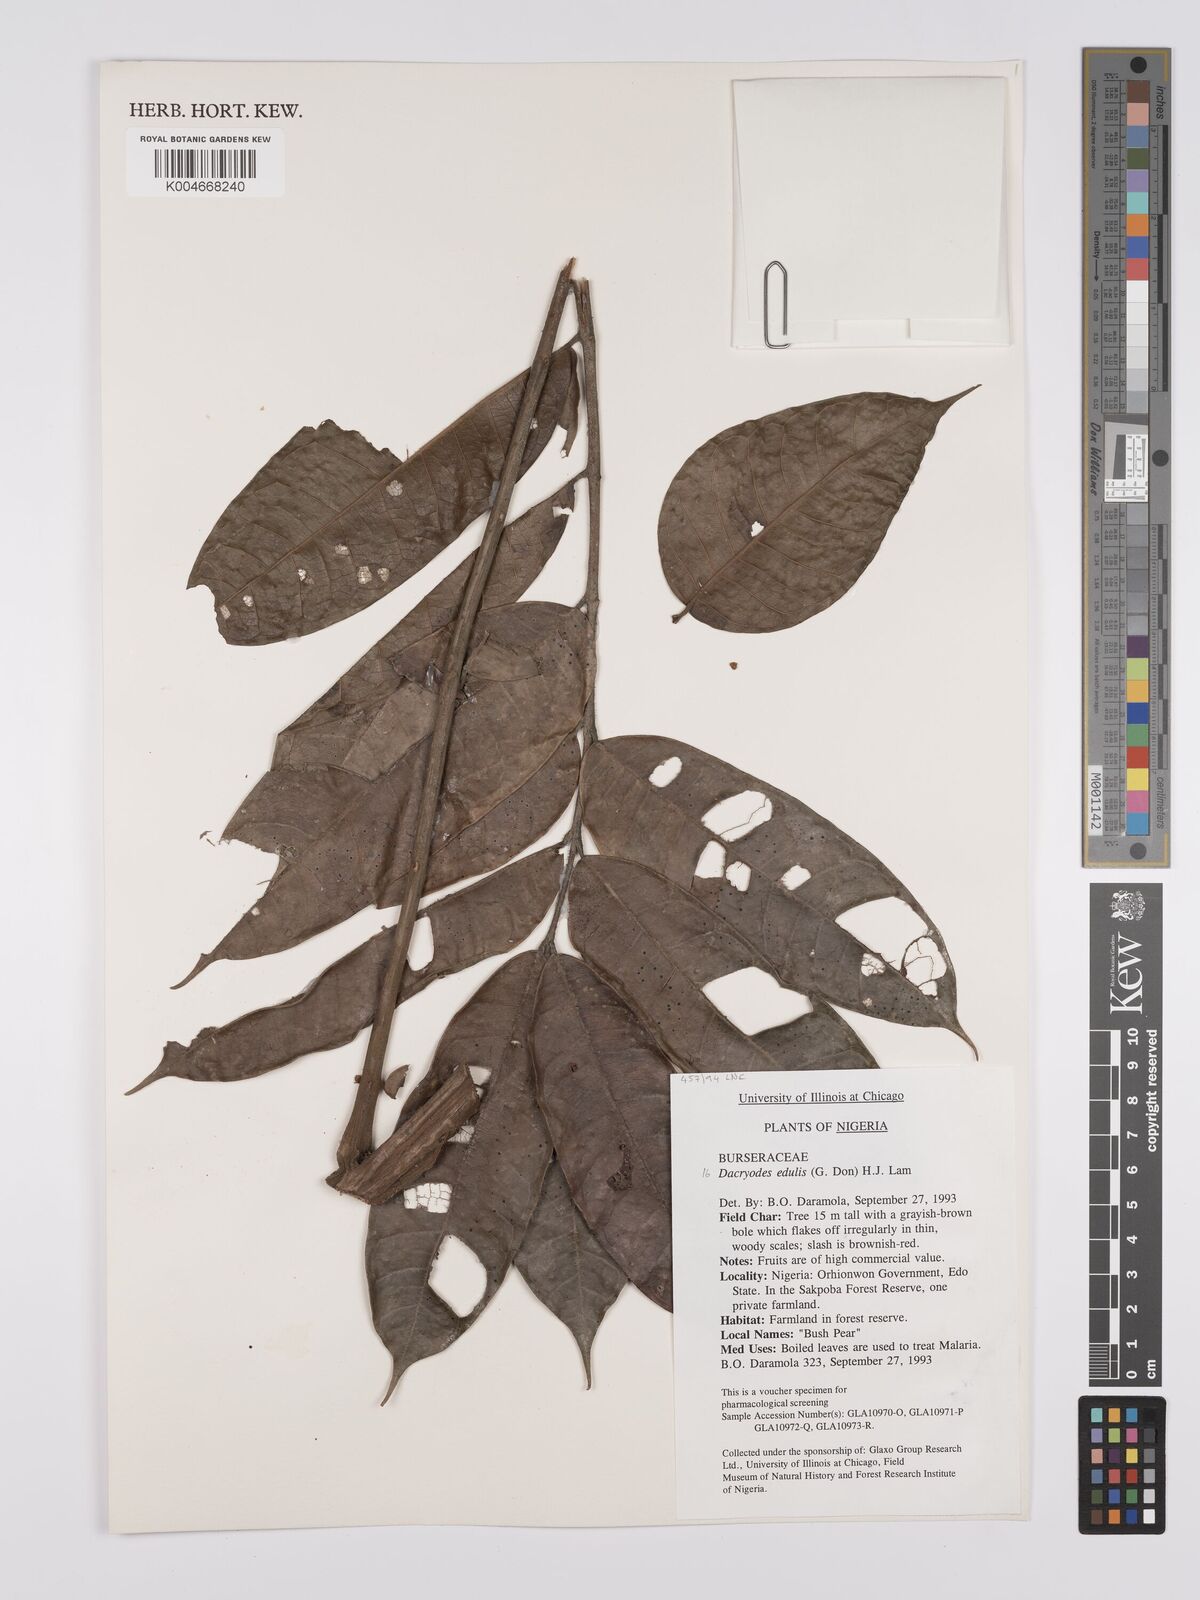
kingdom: Plantae
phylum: Tracheophyta
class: Magnoliopsida
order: Sapindales
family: Burseraceae
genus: Pachylobus
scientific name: Pachylobus edulis
